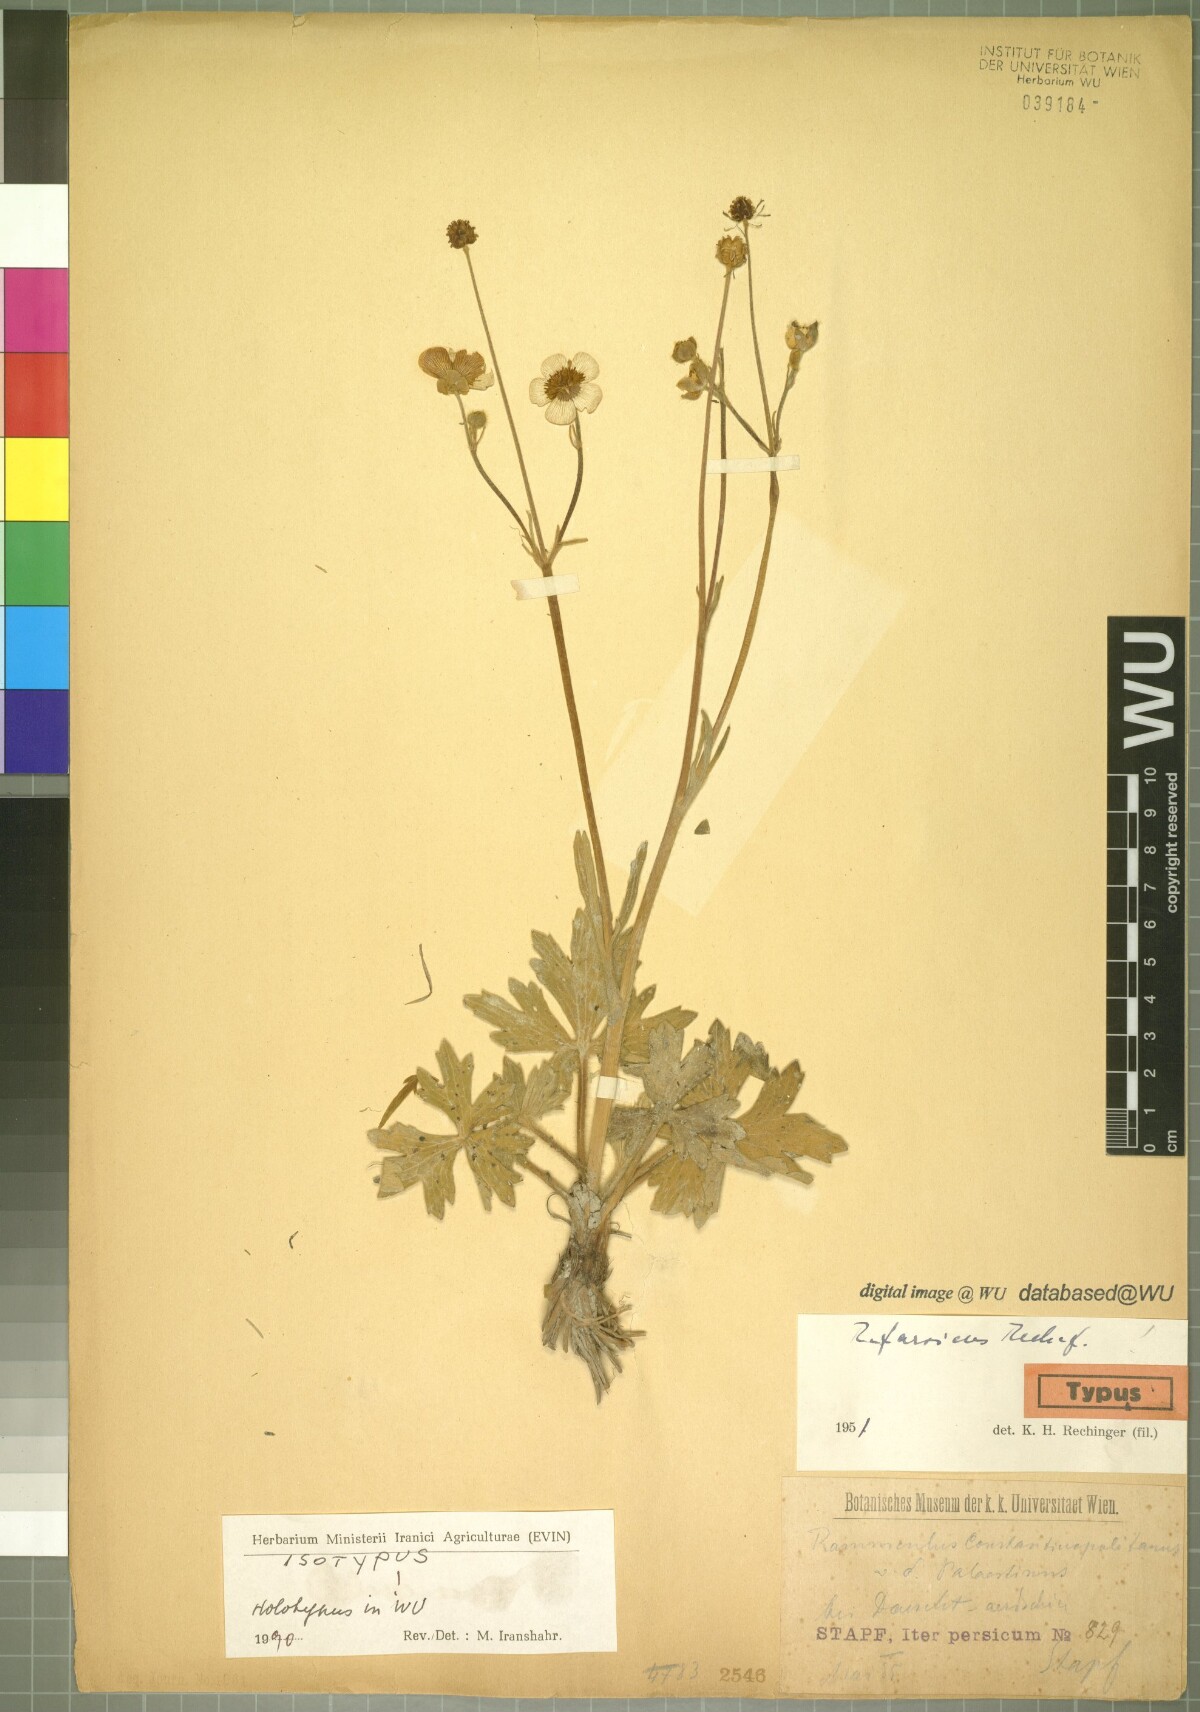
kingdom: Plantae
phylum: Tracheophyta
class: Magnoliopsida
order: Ranunculales
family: Ranunculaceae
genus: Ranunculus
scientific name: Ranunculus constantinopolitanus
